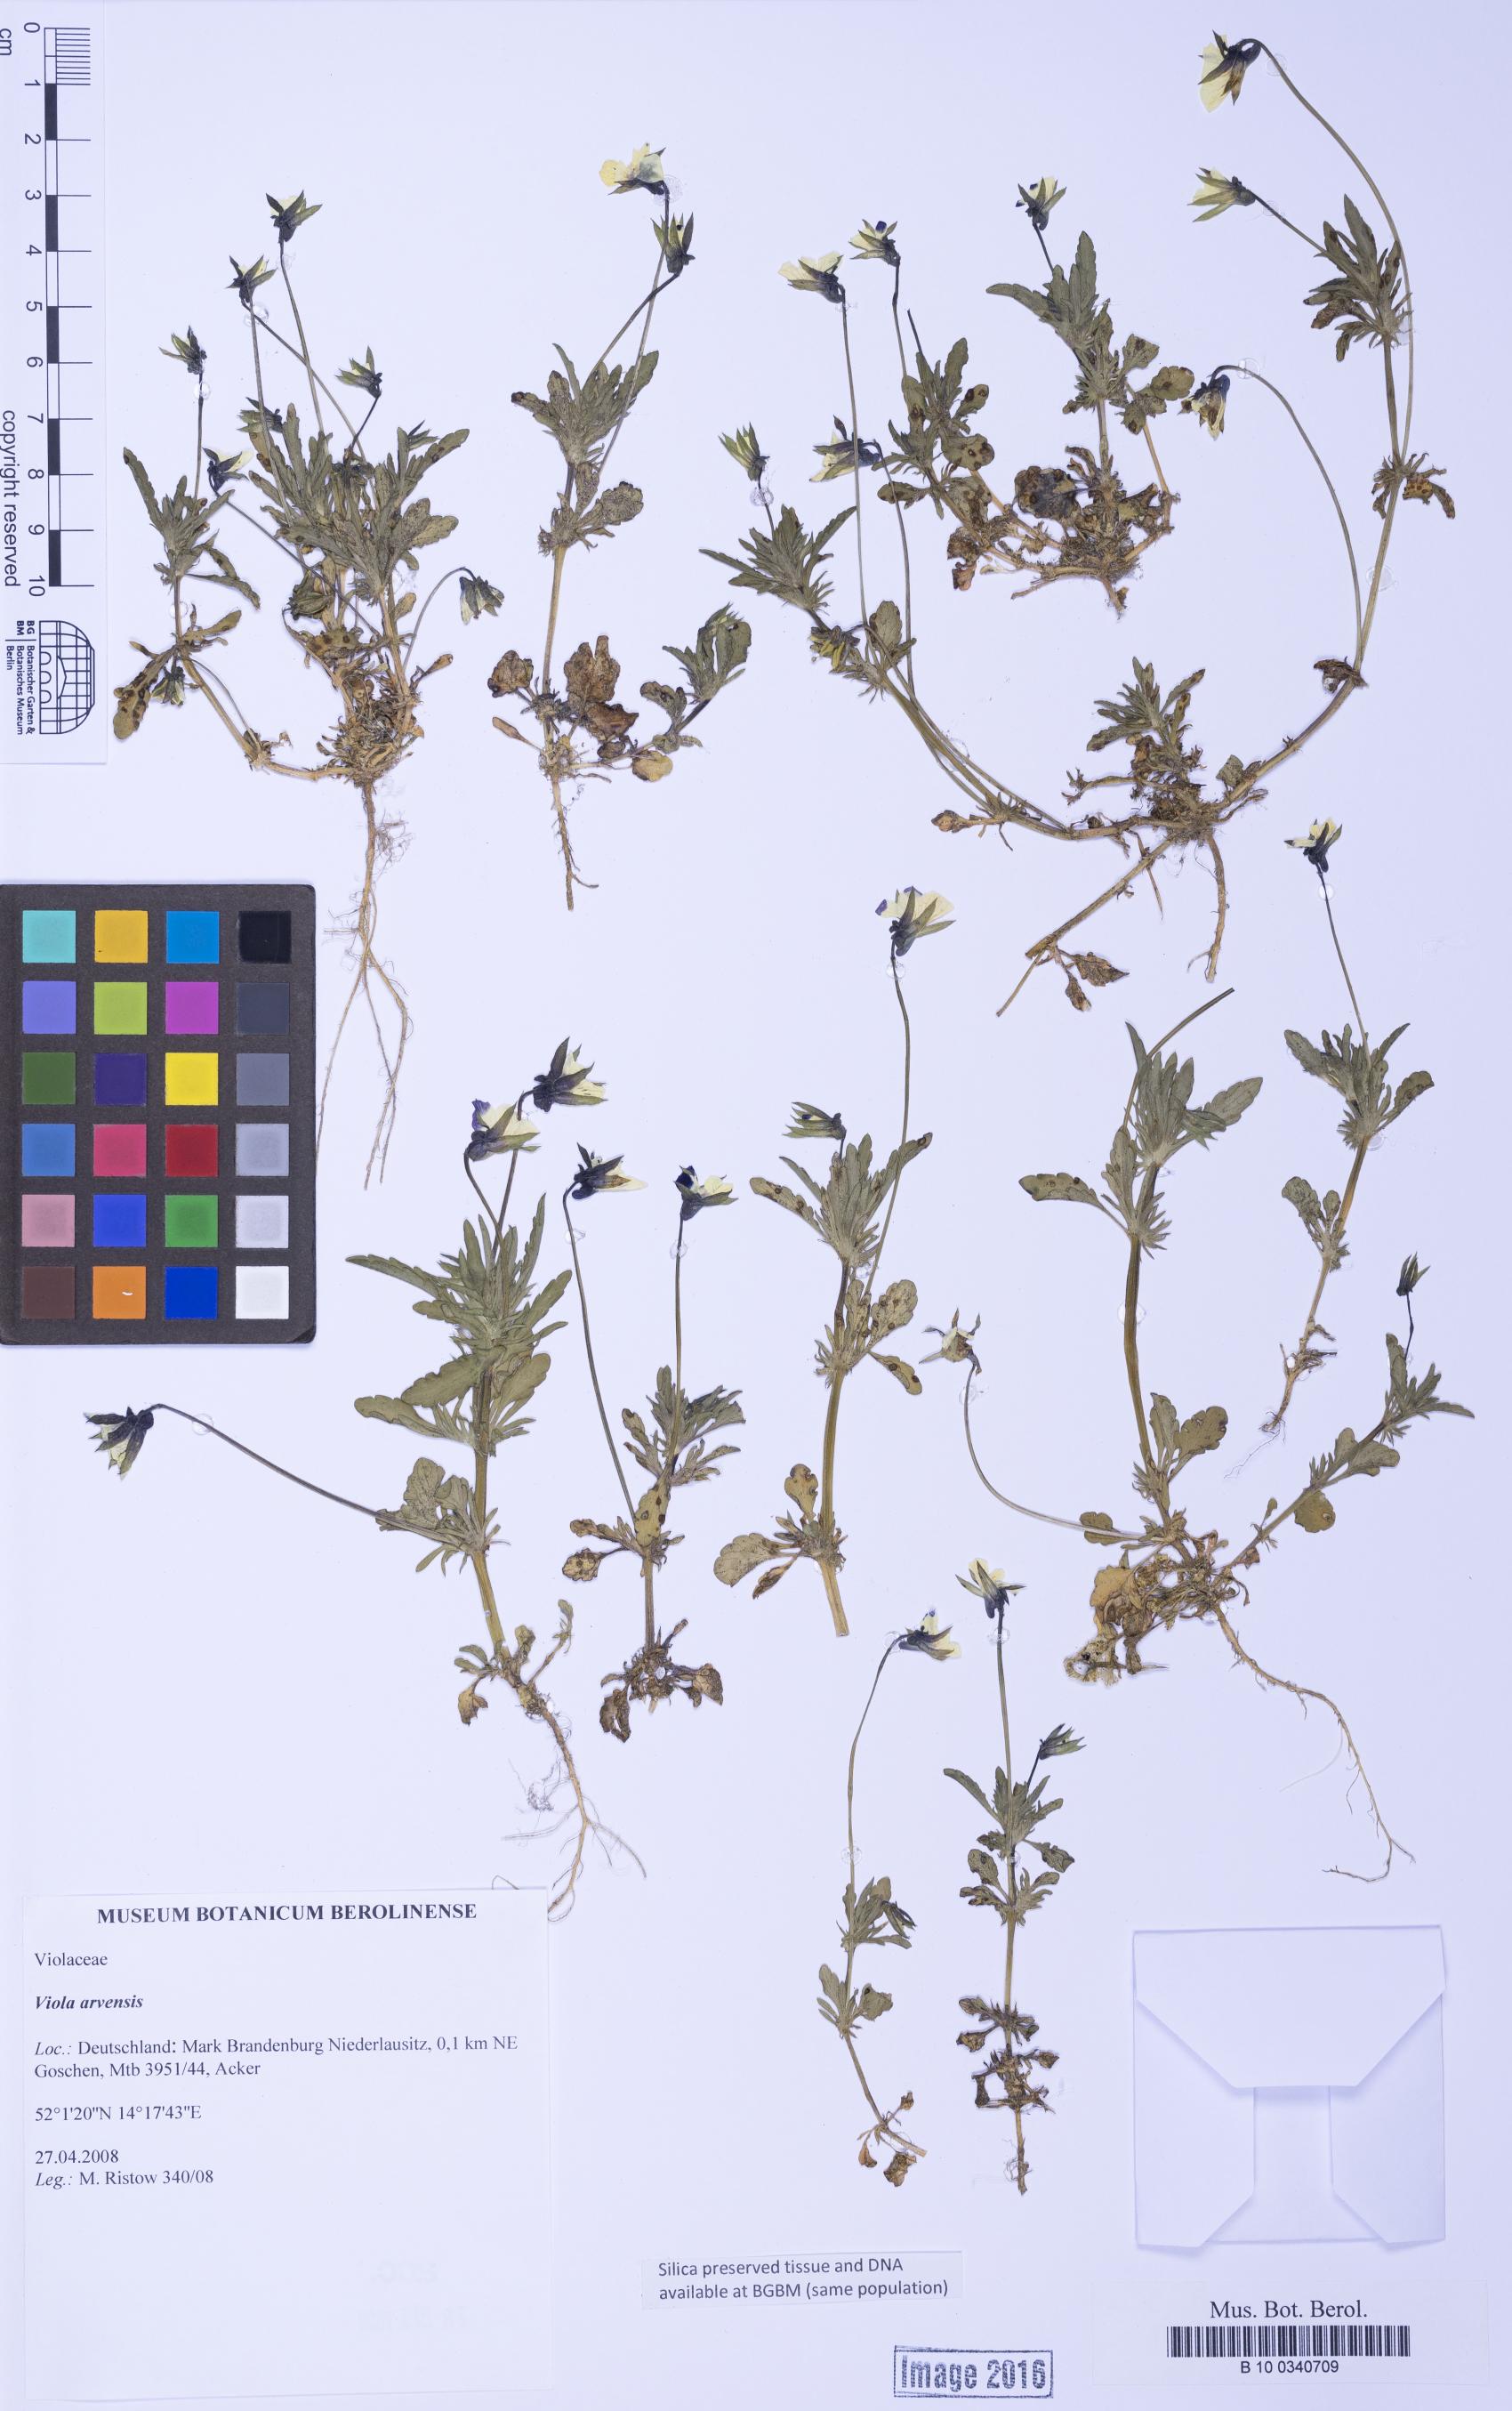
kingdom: Plantae
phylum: Tracheophyta
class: Magnoliopsida
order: Malpighiales
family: Violaceae
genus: Viola
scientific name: Viola arvensis
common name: Field pansy
